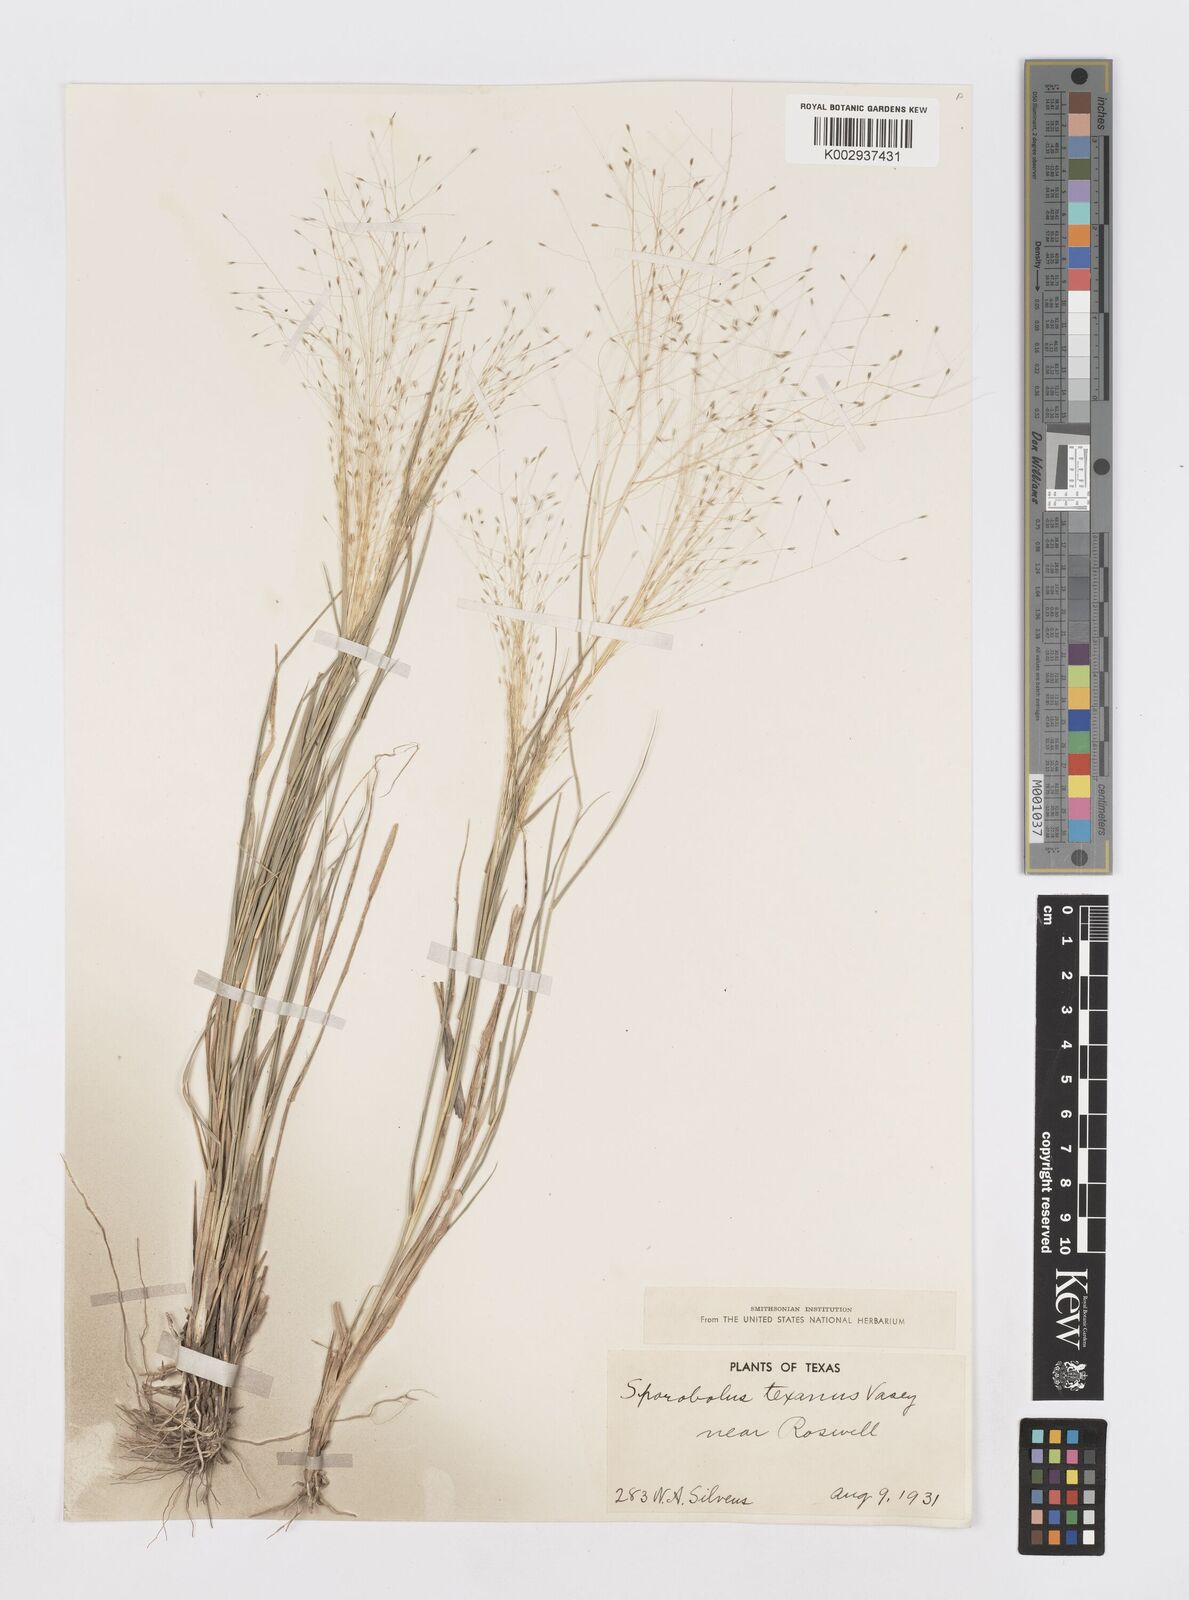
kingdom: Plantae
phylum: Tracheophyta
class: Liliopsida
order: Poales
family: Poaceae
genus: Sporobolus
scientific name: Sporobolus texanus
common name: Texas dropseed
